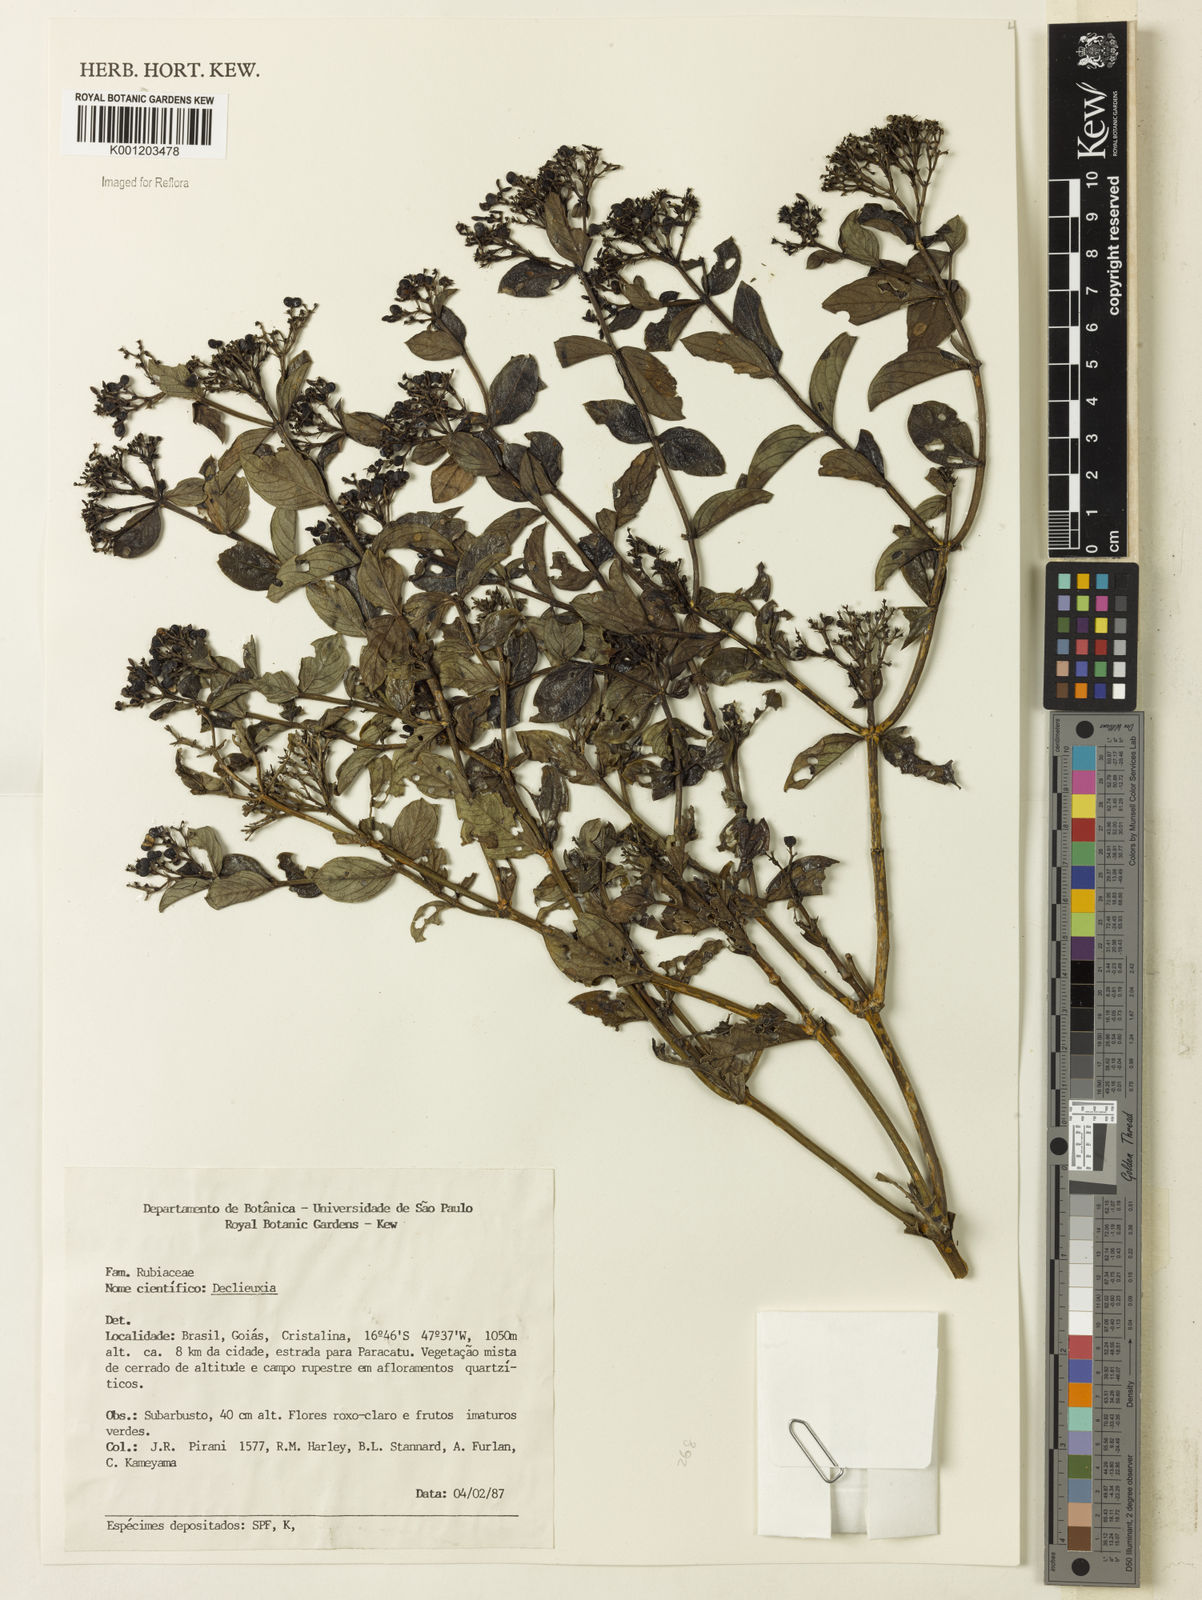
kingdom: Plantae
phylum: Tracheophyta
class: Magnoliopsida
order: Gentianales
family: Rubiaceae
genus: Declieuxia
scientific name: Declieuxia fruticosa
